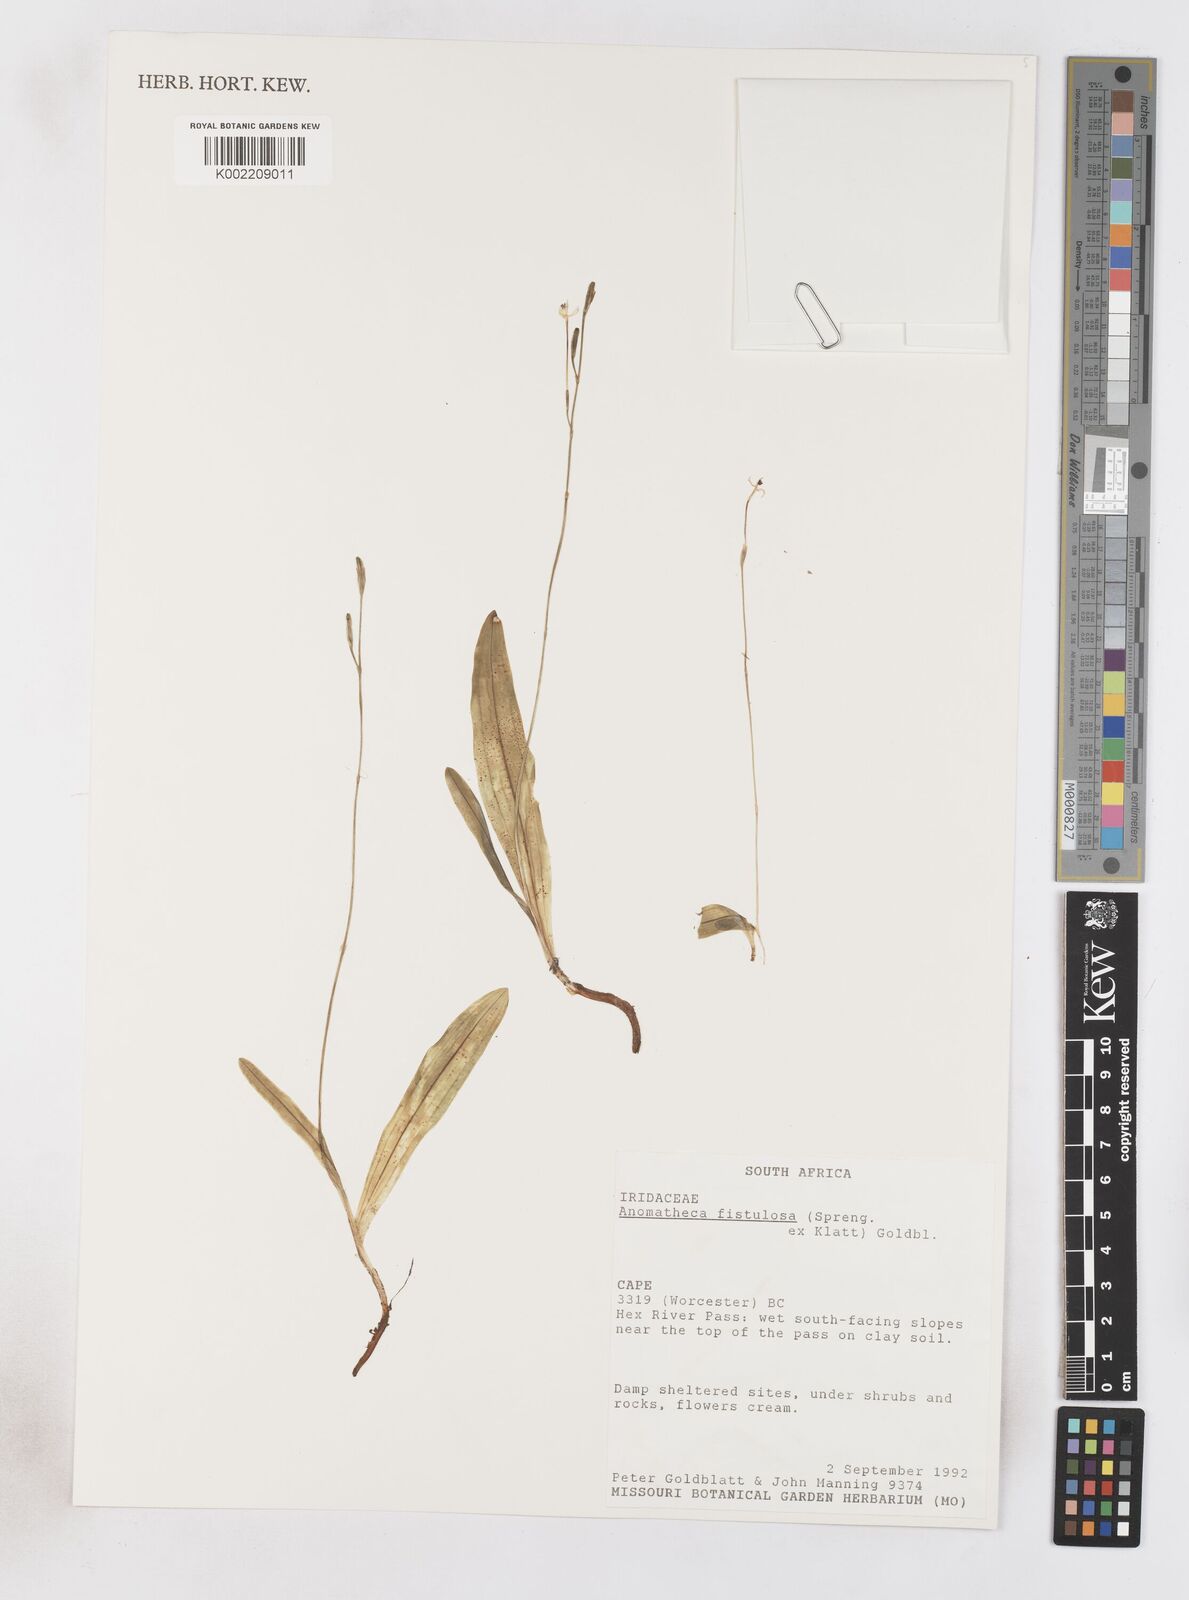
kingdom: Plantae
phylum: Tracheophyta
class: Liliopsida
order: Asparagales
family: Iridaceae
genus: Freesia
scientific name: Freesia
